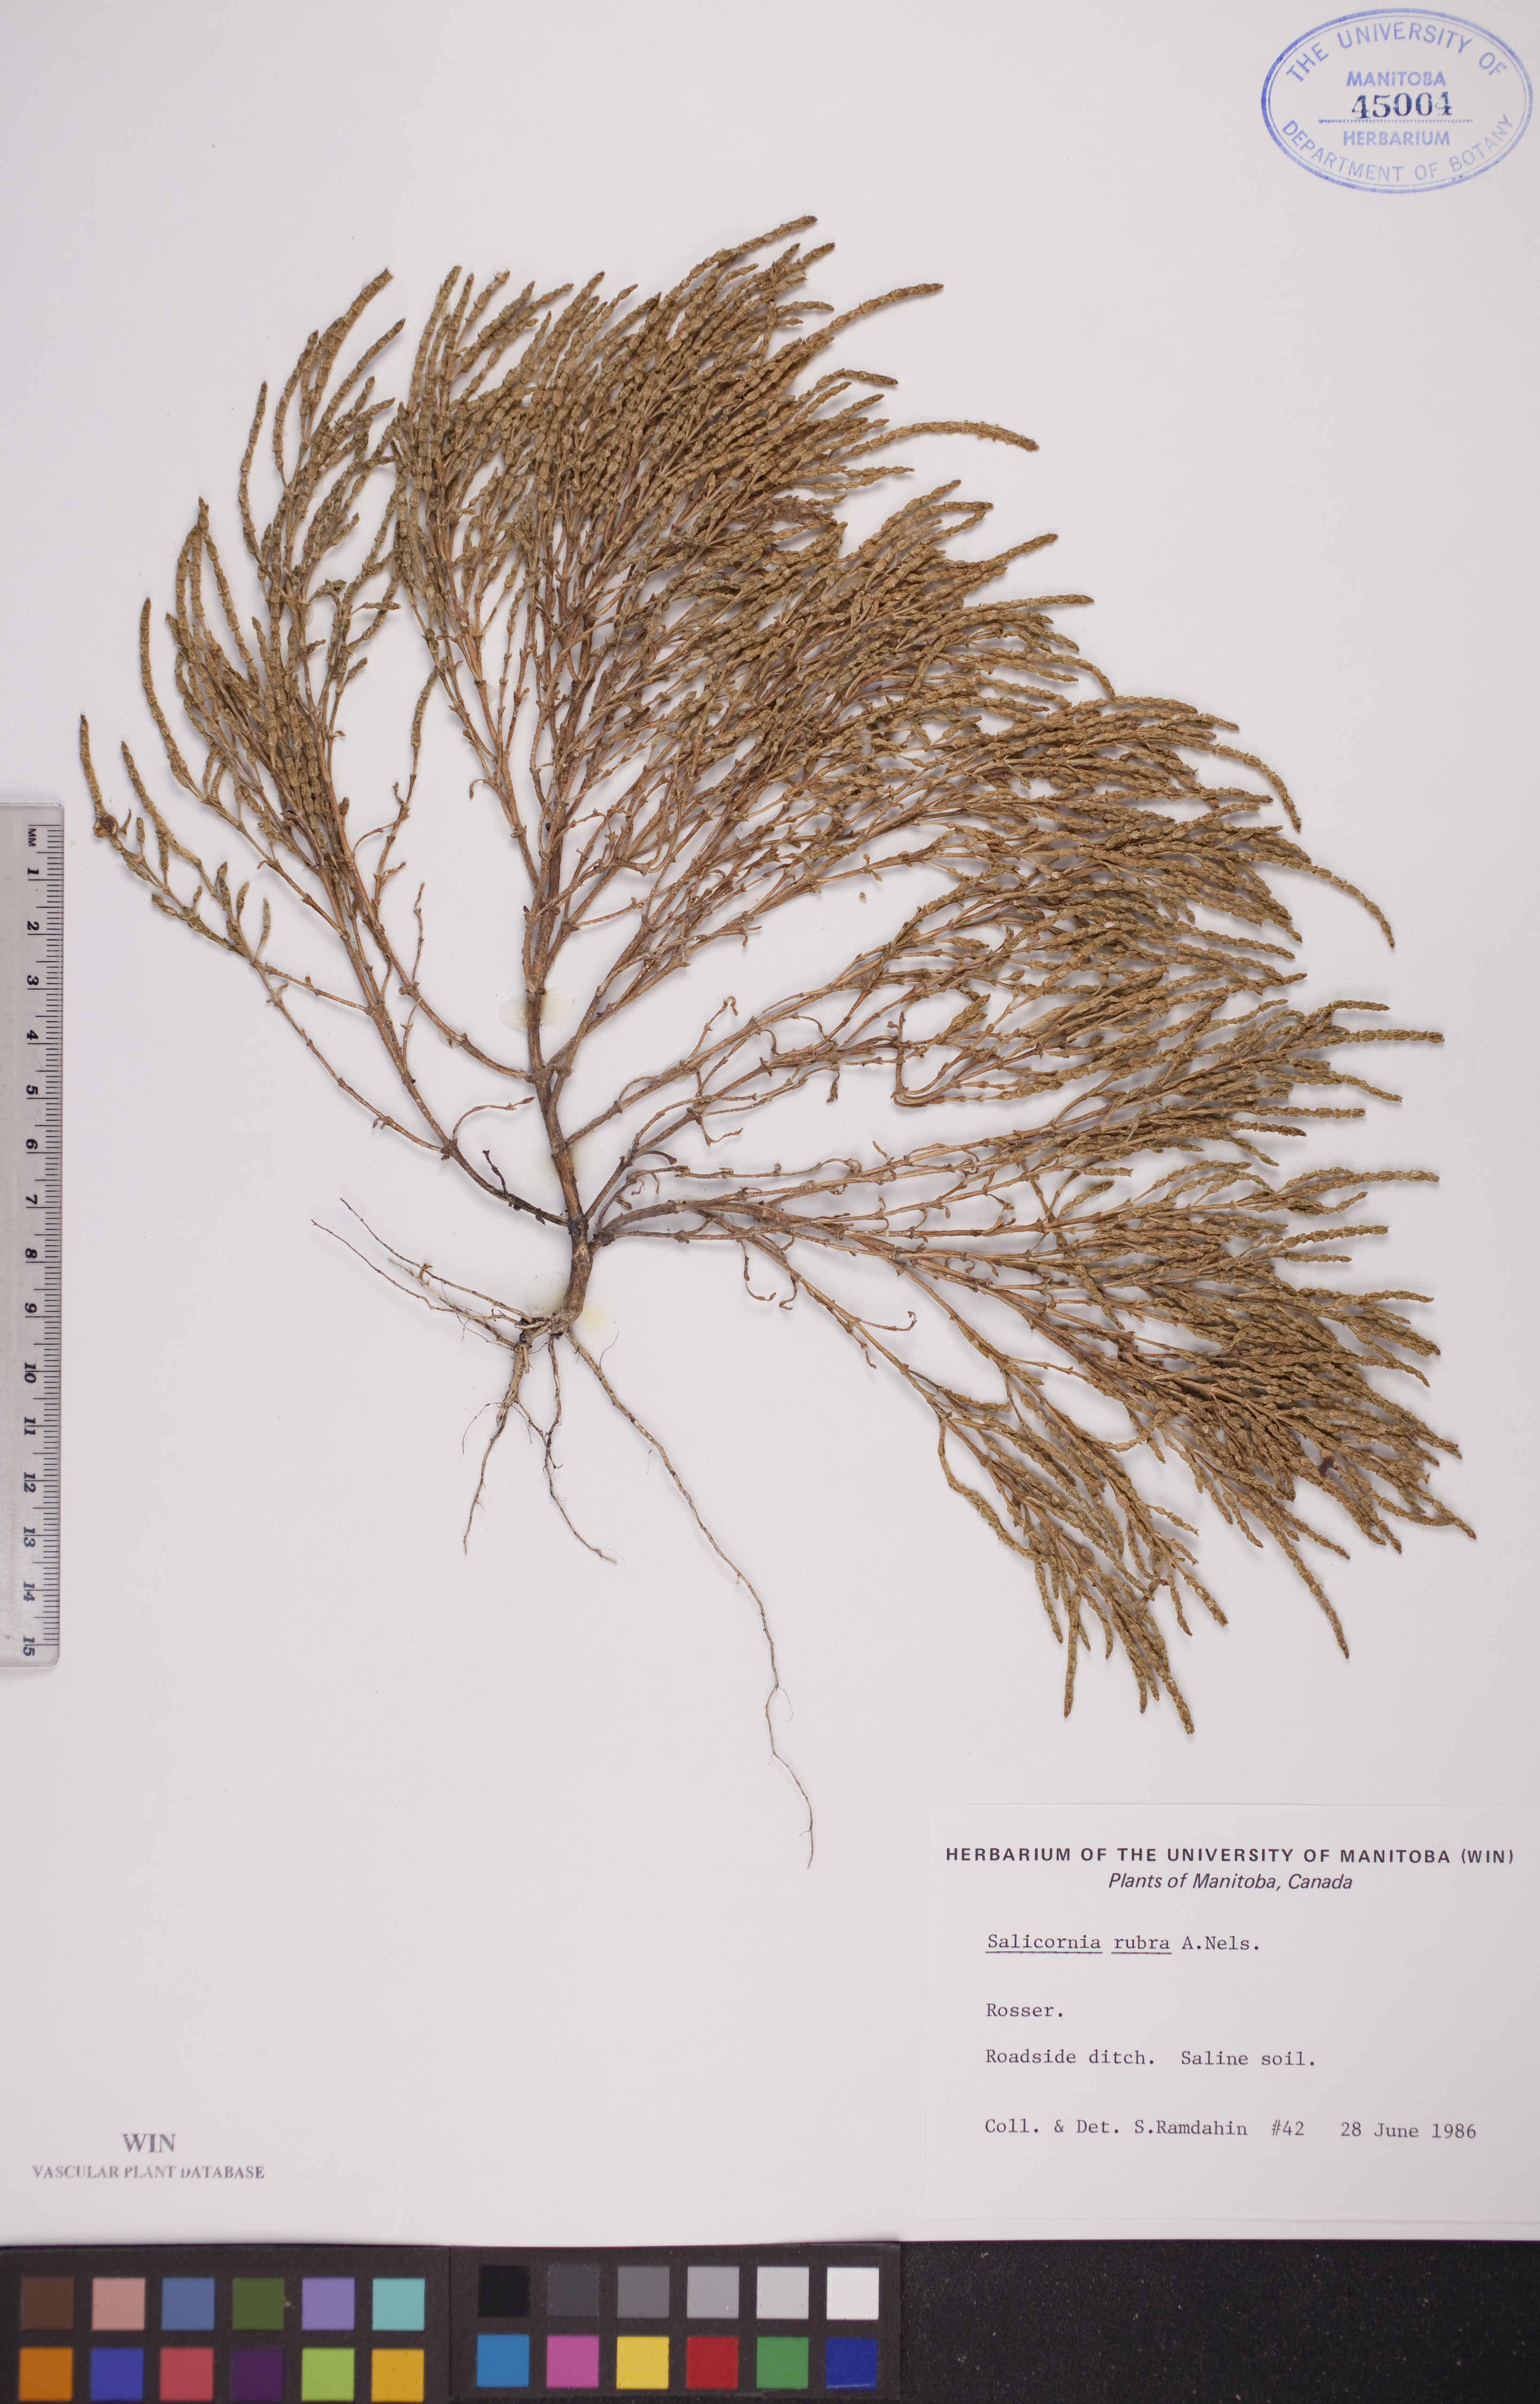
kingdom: Plantae
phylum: Tracheophyta
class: Magnoliopsida
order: Caryophyllales
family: Amaranthaceae
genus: Salicornia
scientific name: Salicornia rubra
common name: Red glasswort
